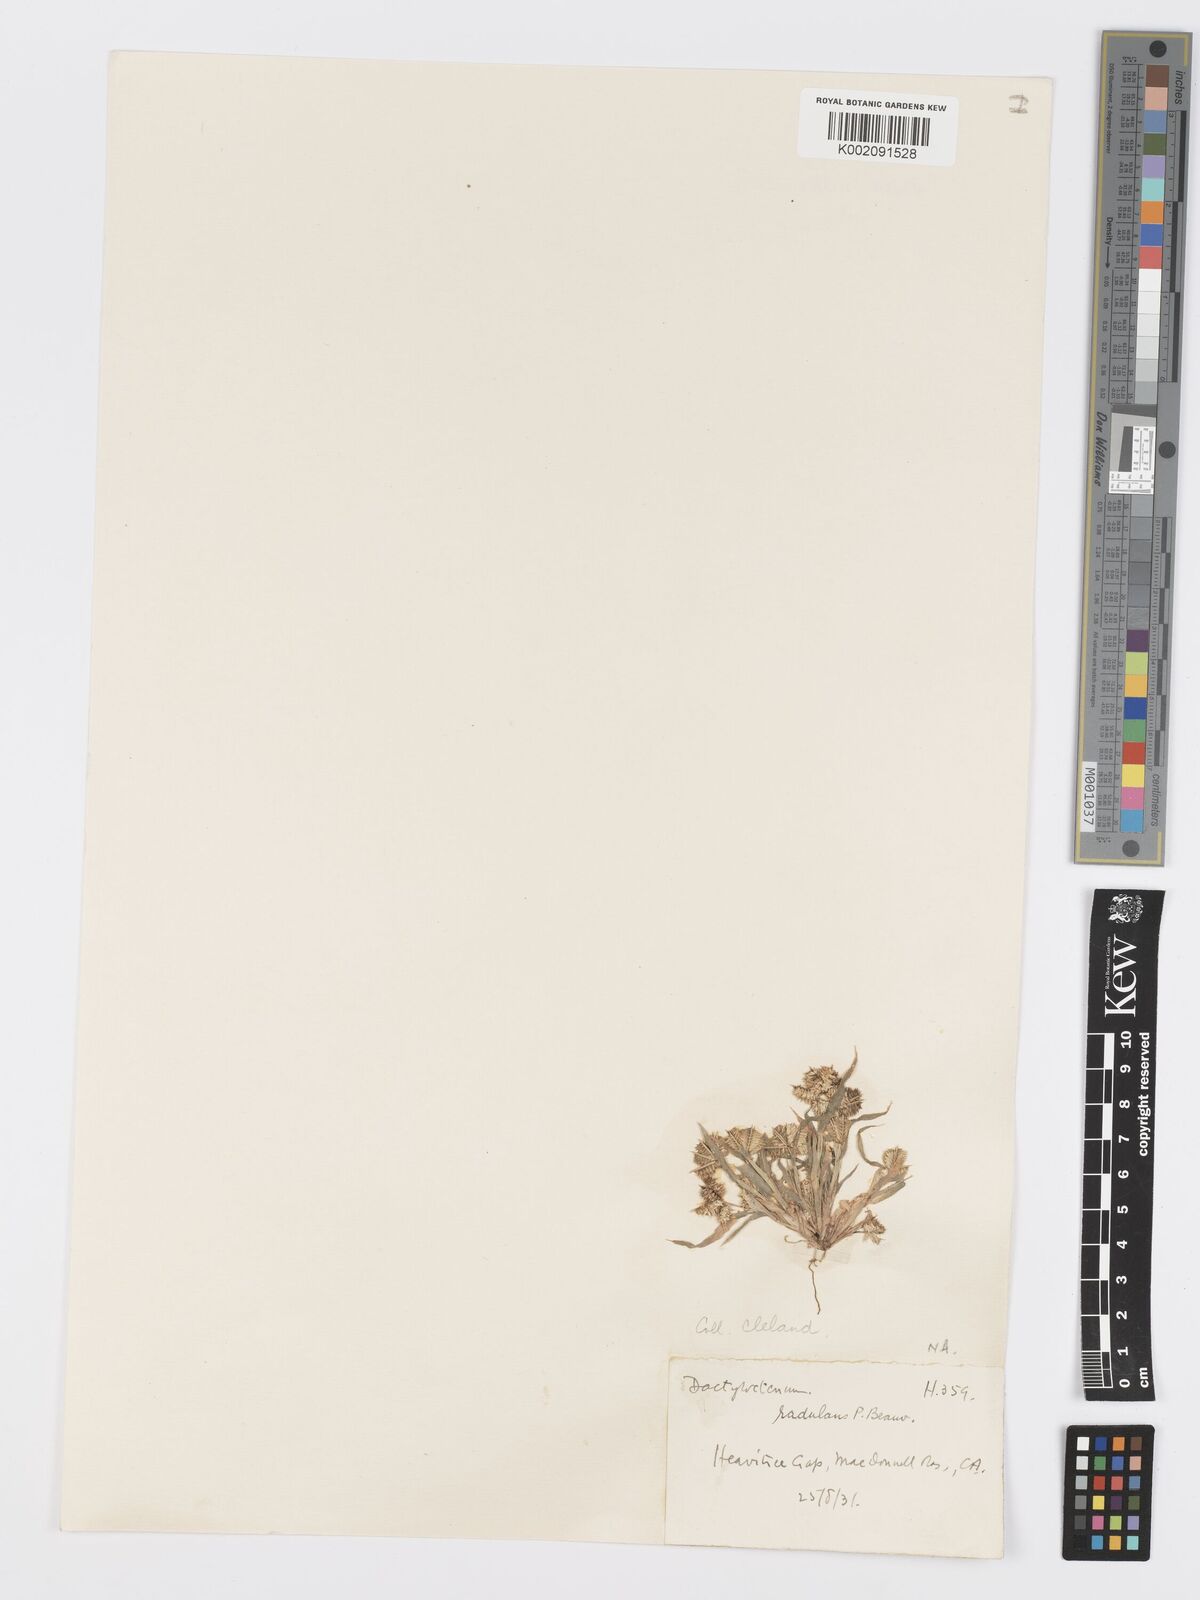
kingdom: Plantae
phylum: Tracheophyta
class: Liliopsida
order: Poales
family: Poaceae
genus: Dactyloctenium
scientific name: Dactyloctenium radulans
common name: Button-grass
